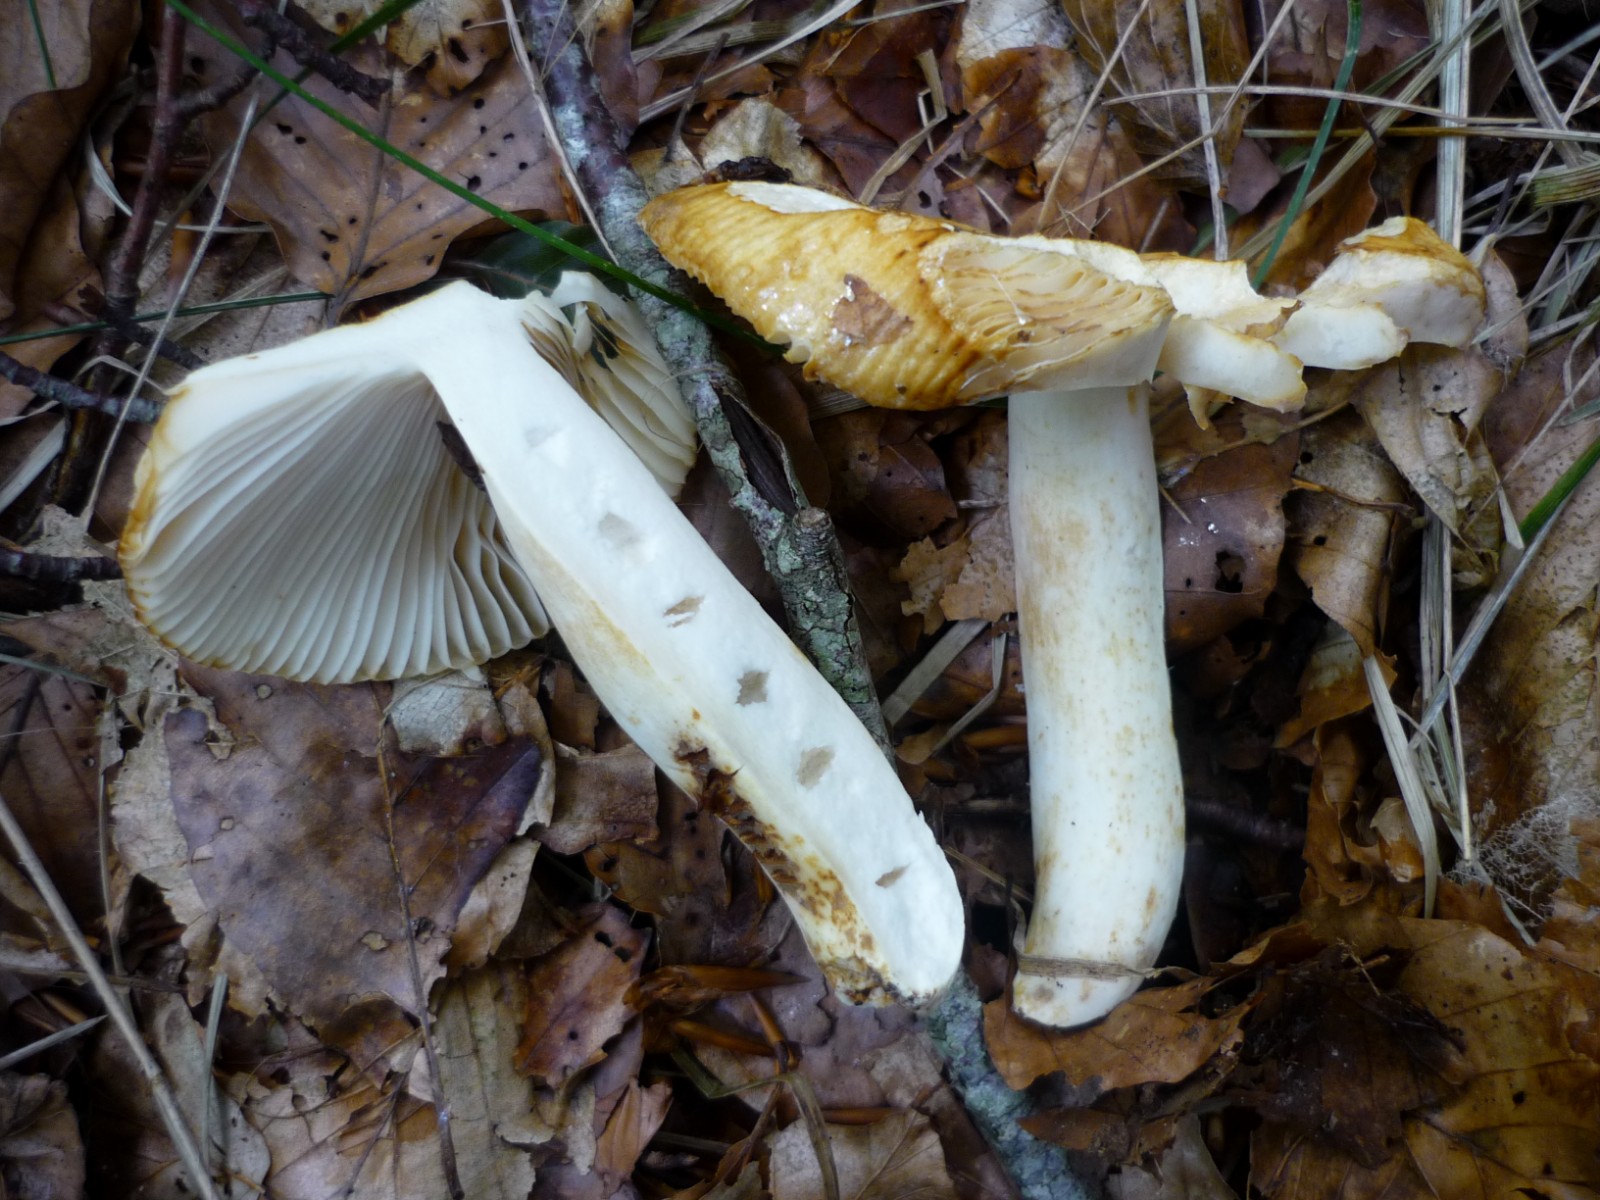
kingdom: Fungi
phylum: Basidiomycota
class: Agaricomycetes
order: Russulales
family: Russulaceae
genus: Russula
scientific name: Russula foetens
